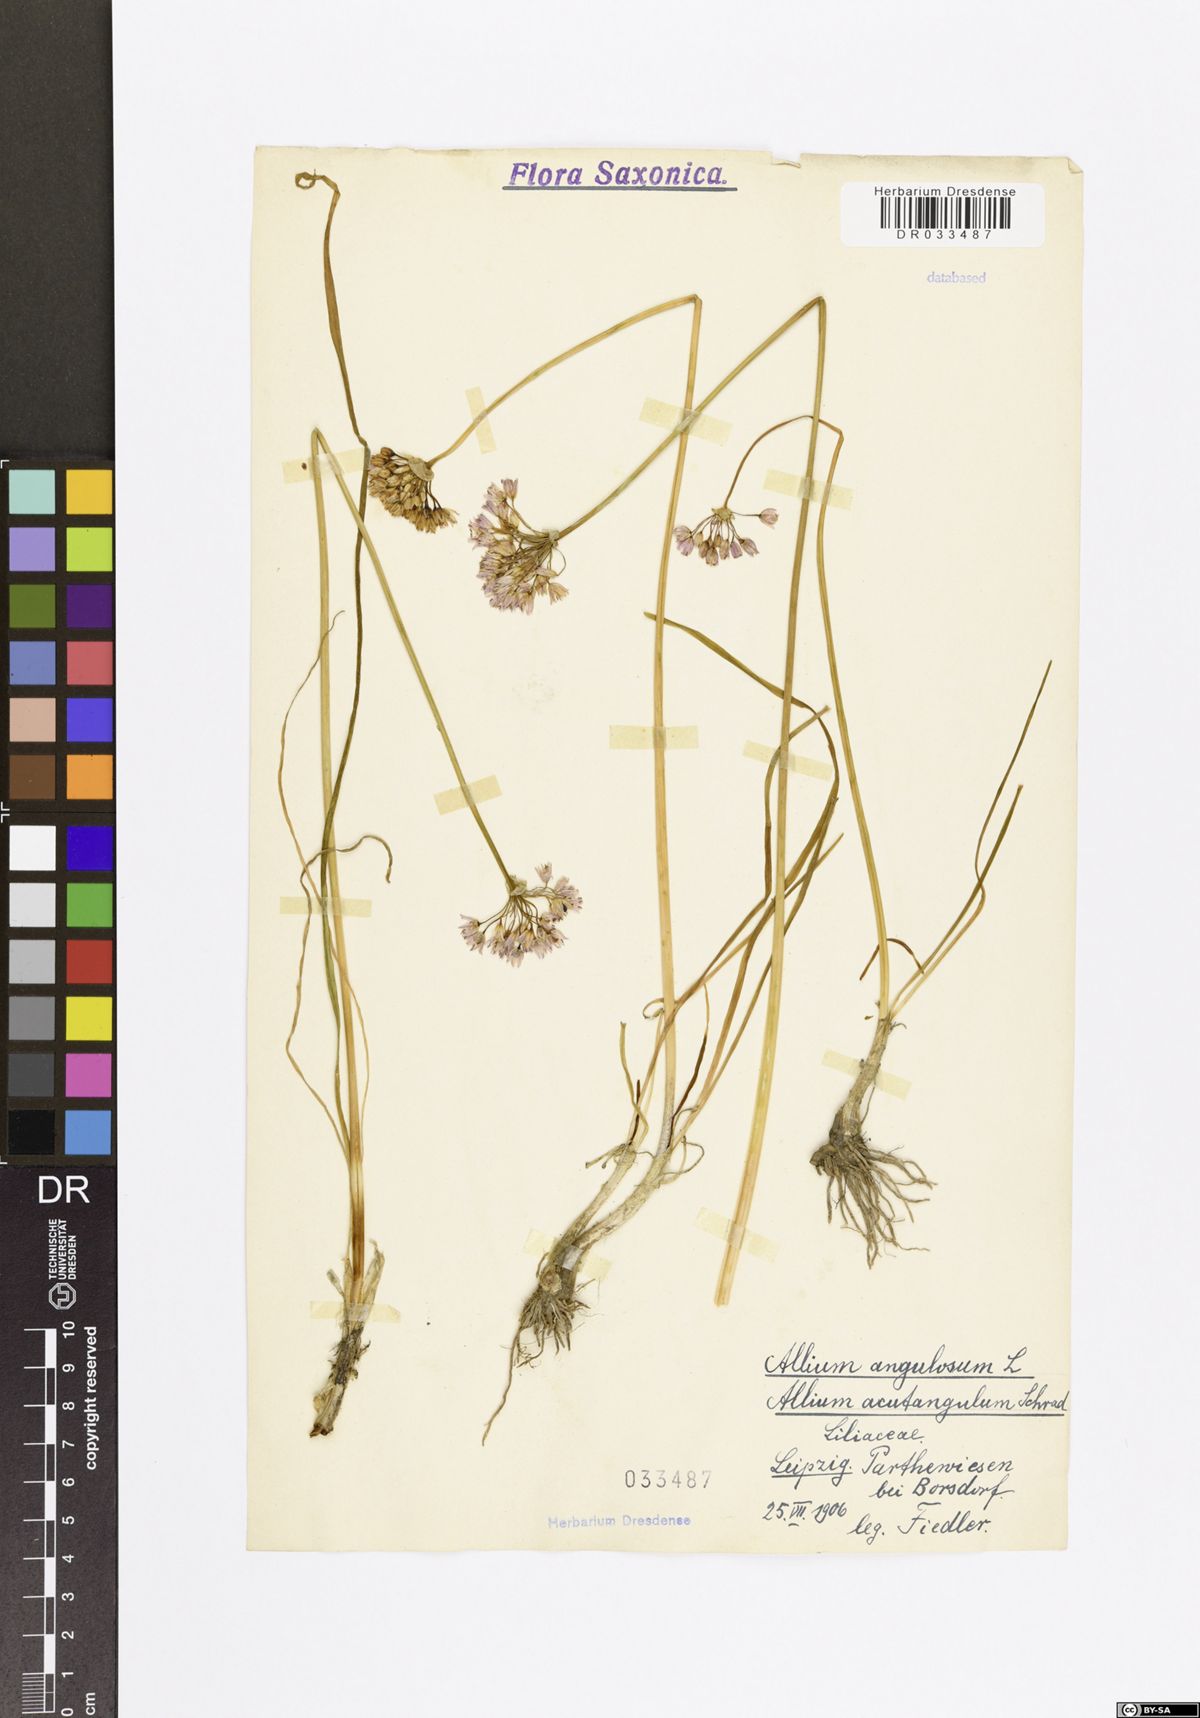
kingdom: Plantae
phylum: Tracheophyta
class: Liliopsida
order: Asparagales
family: Amaryllidaceae
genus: Allium
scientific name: Allium angulosum
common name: Mouse garlic
